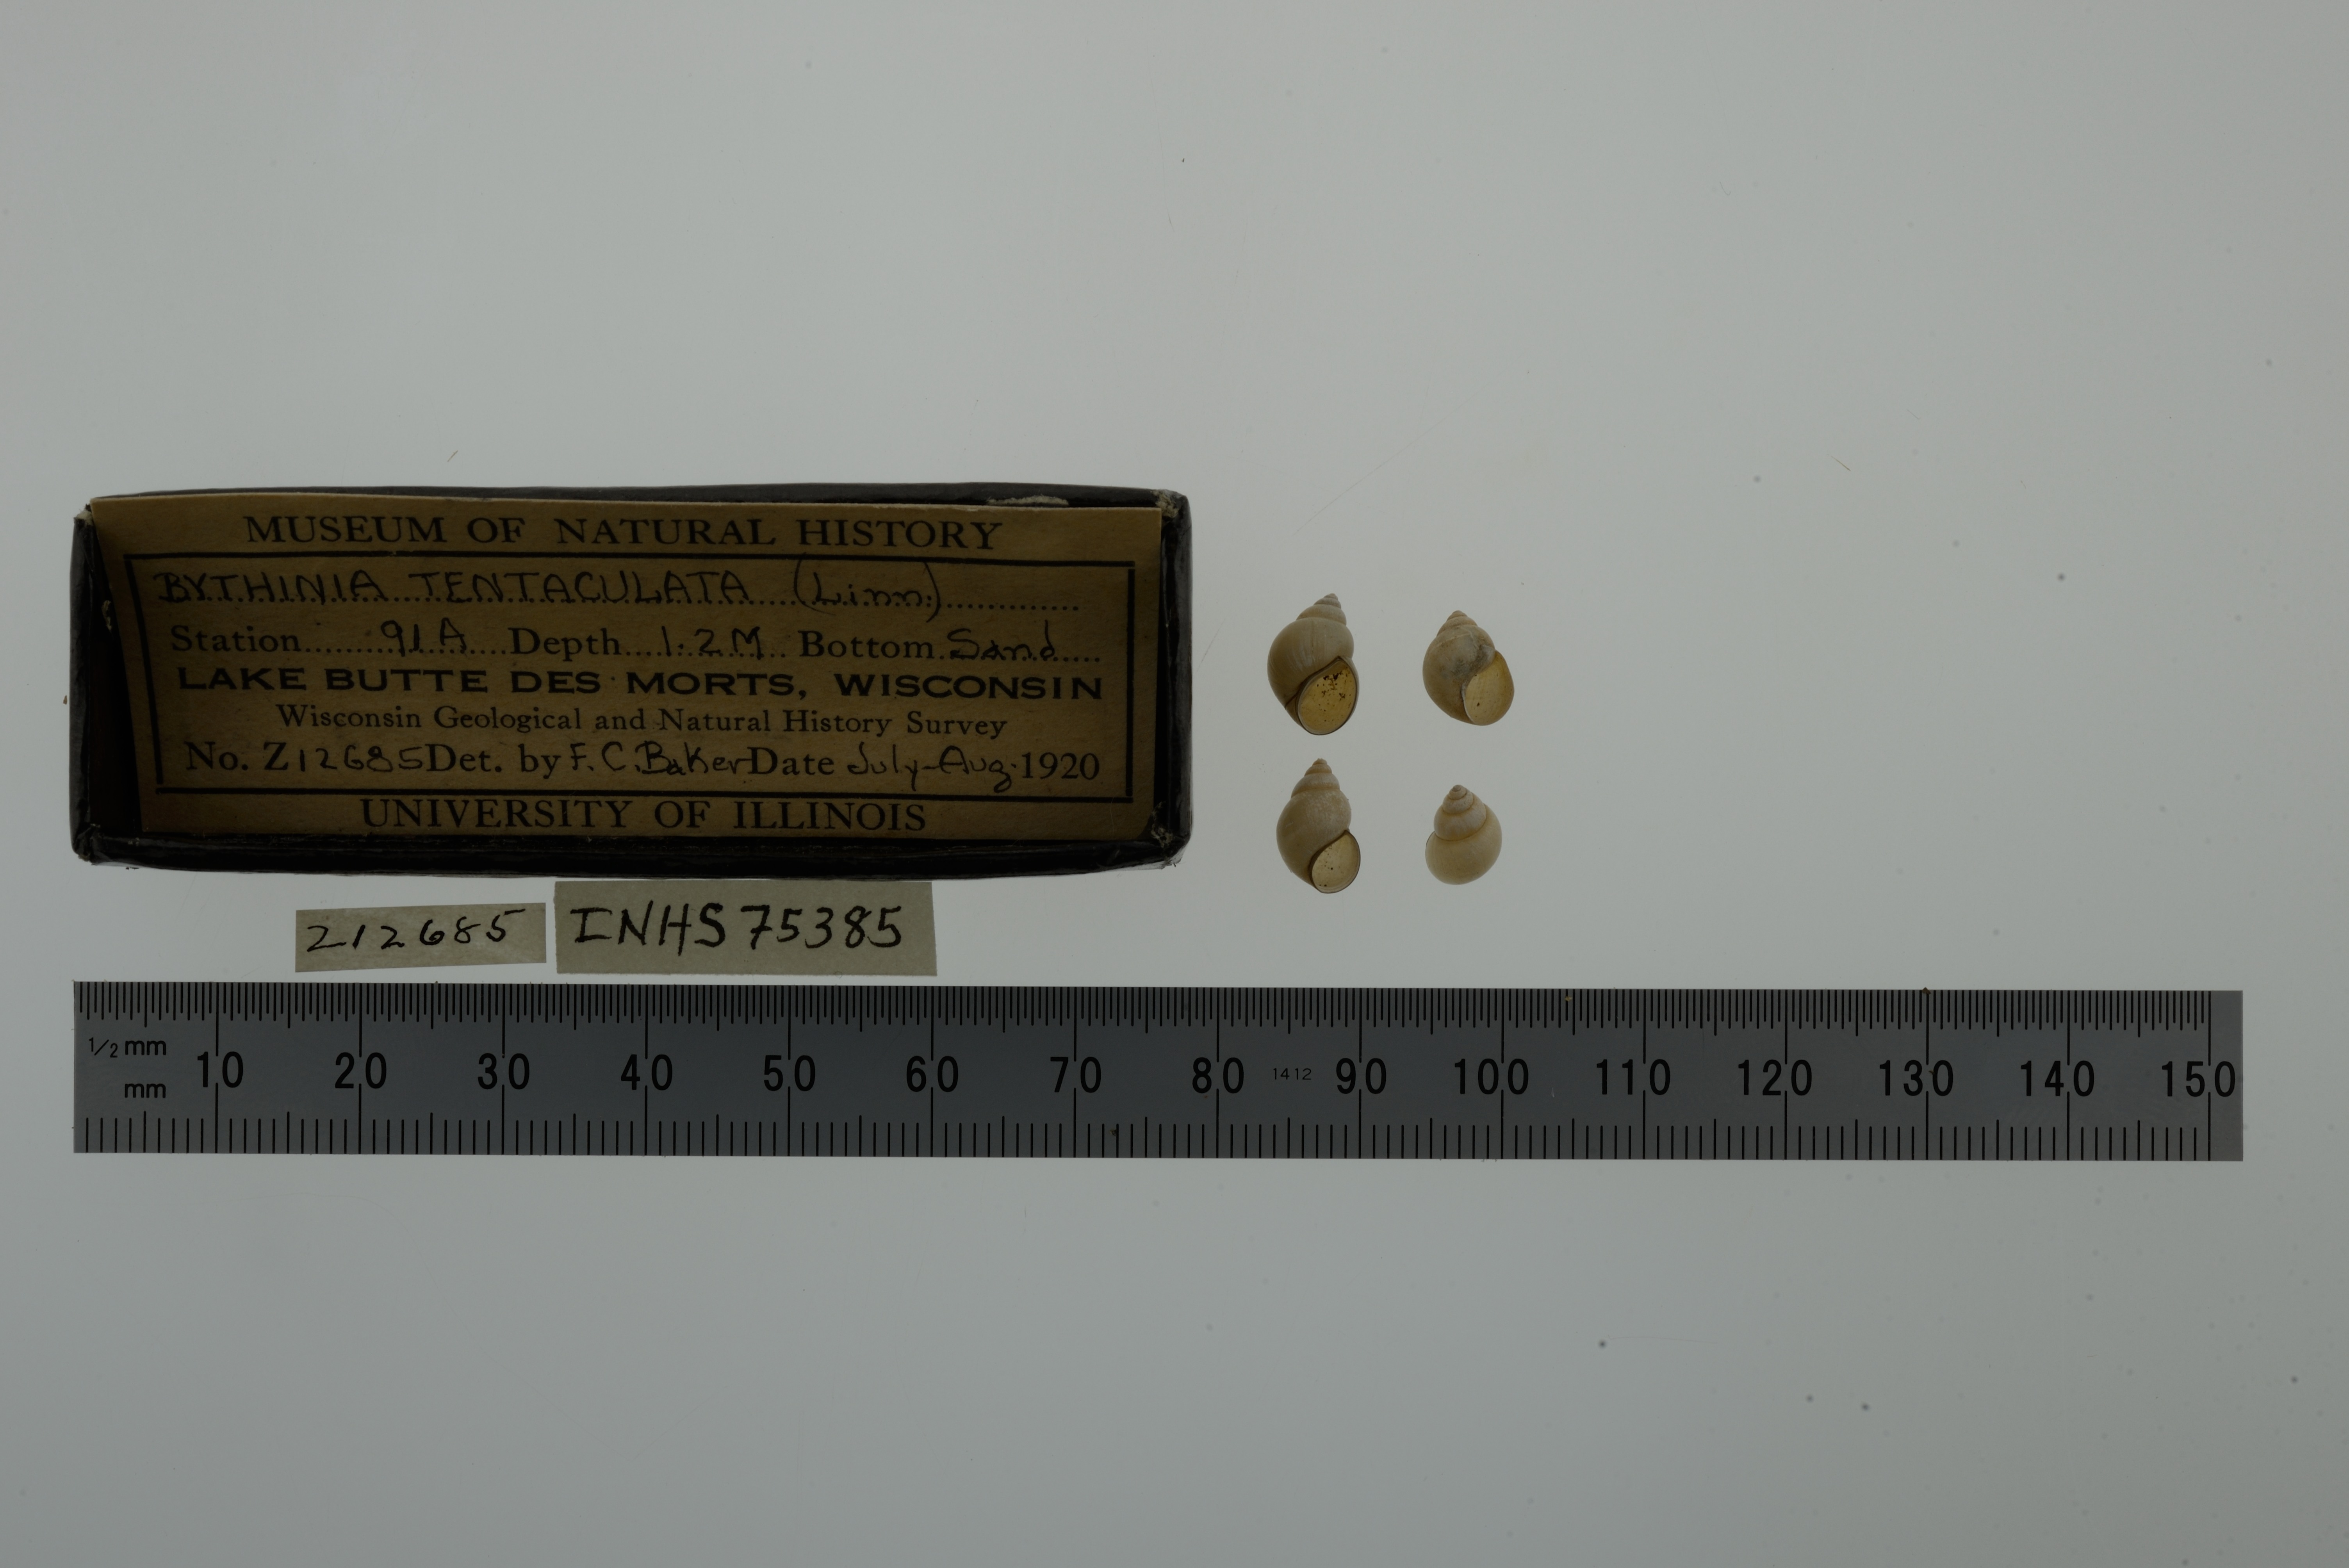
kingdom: Animalia
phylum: Mollusca
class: Gastropoda
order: Littorinimorpha
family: Bithyniidae
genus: Bithynia
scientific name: Bithynia tentaculata
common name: Common bithynia
